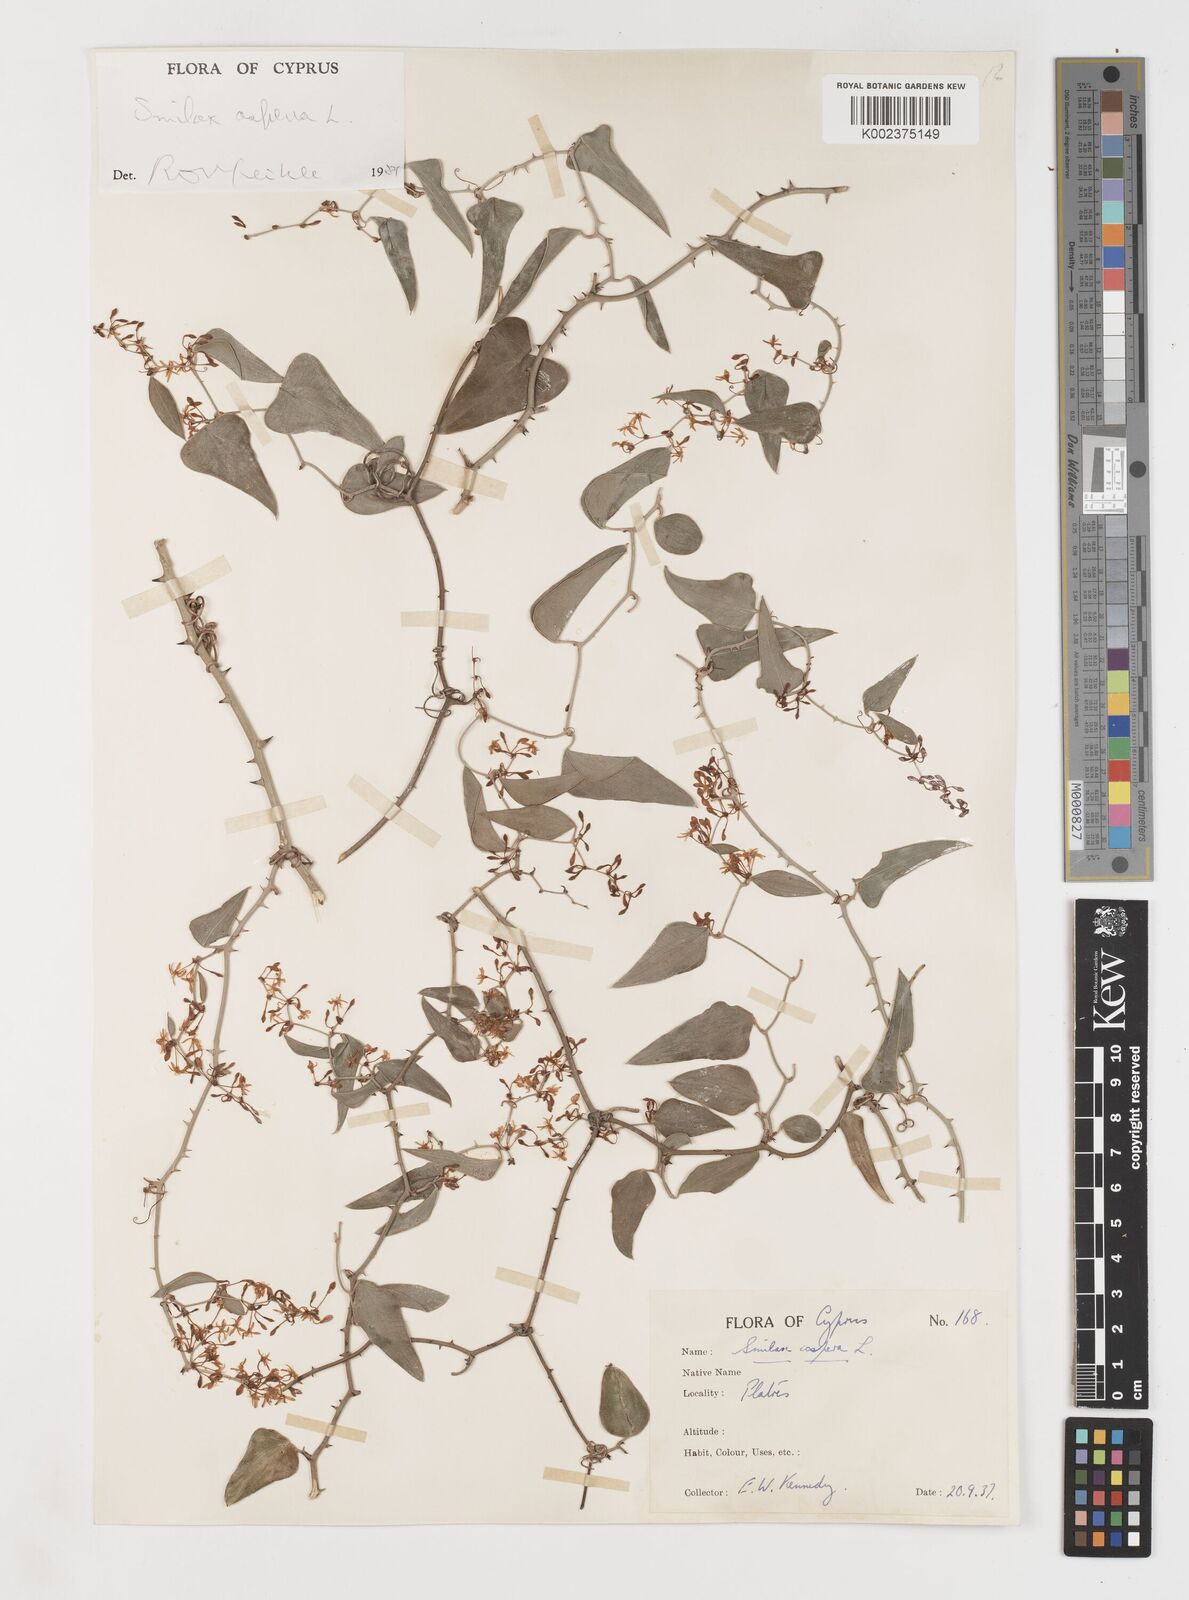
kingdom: Plantae
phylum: Tracheophyta
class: Liliopsida
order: Liliales
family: Smilacaceae
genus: Smilax
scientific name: Smilax aspera
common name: Common smilax
